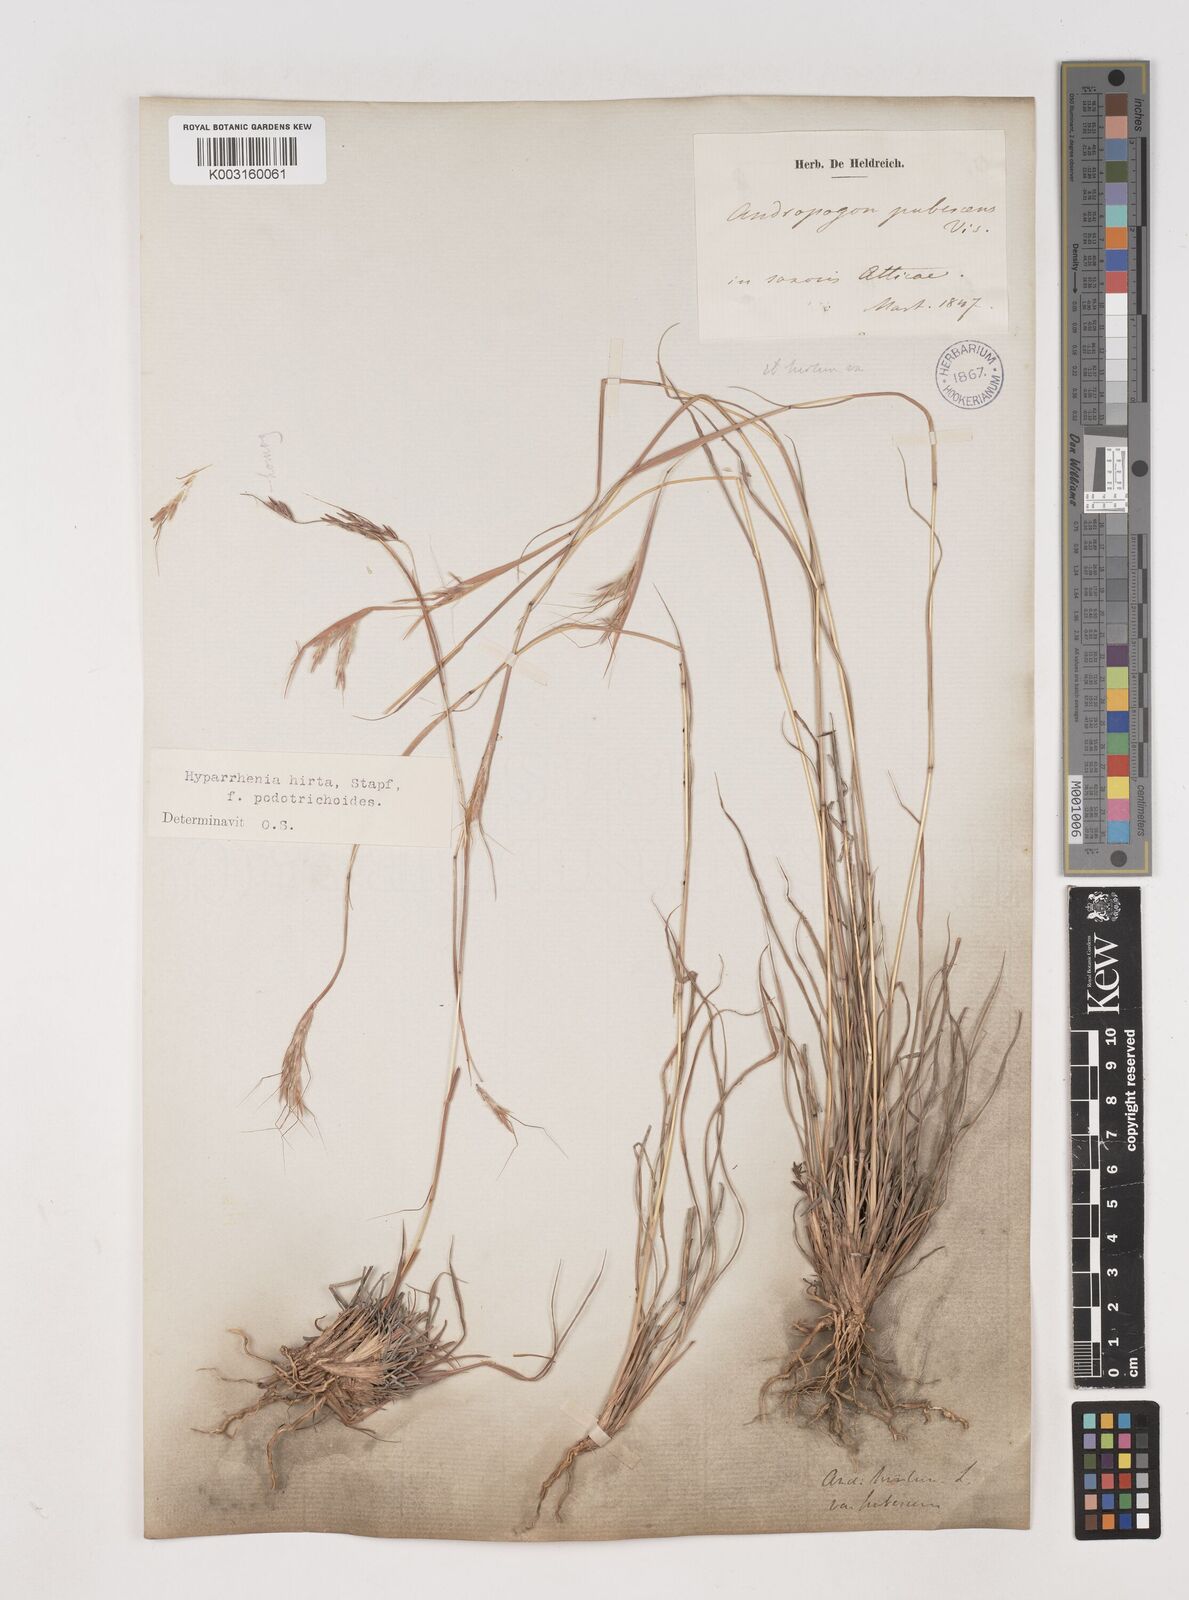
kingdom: Plantae
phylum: Tracheophyta
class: Liliopsida
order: Poales
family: Poaceae
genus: Hyparrhenia
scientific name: Hyparrhenia hirta
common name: Thatching grass
